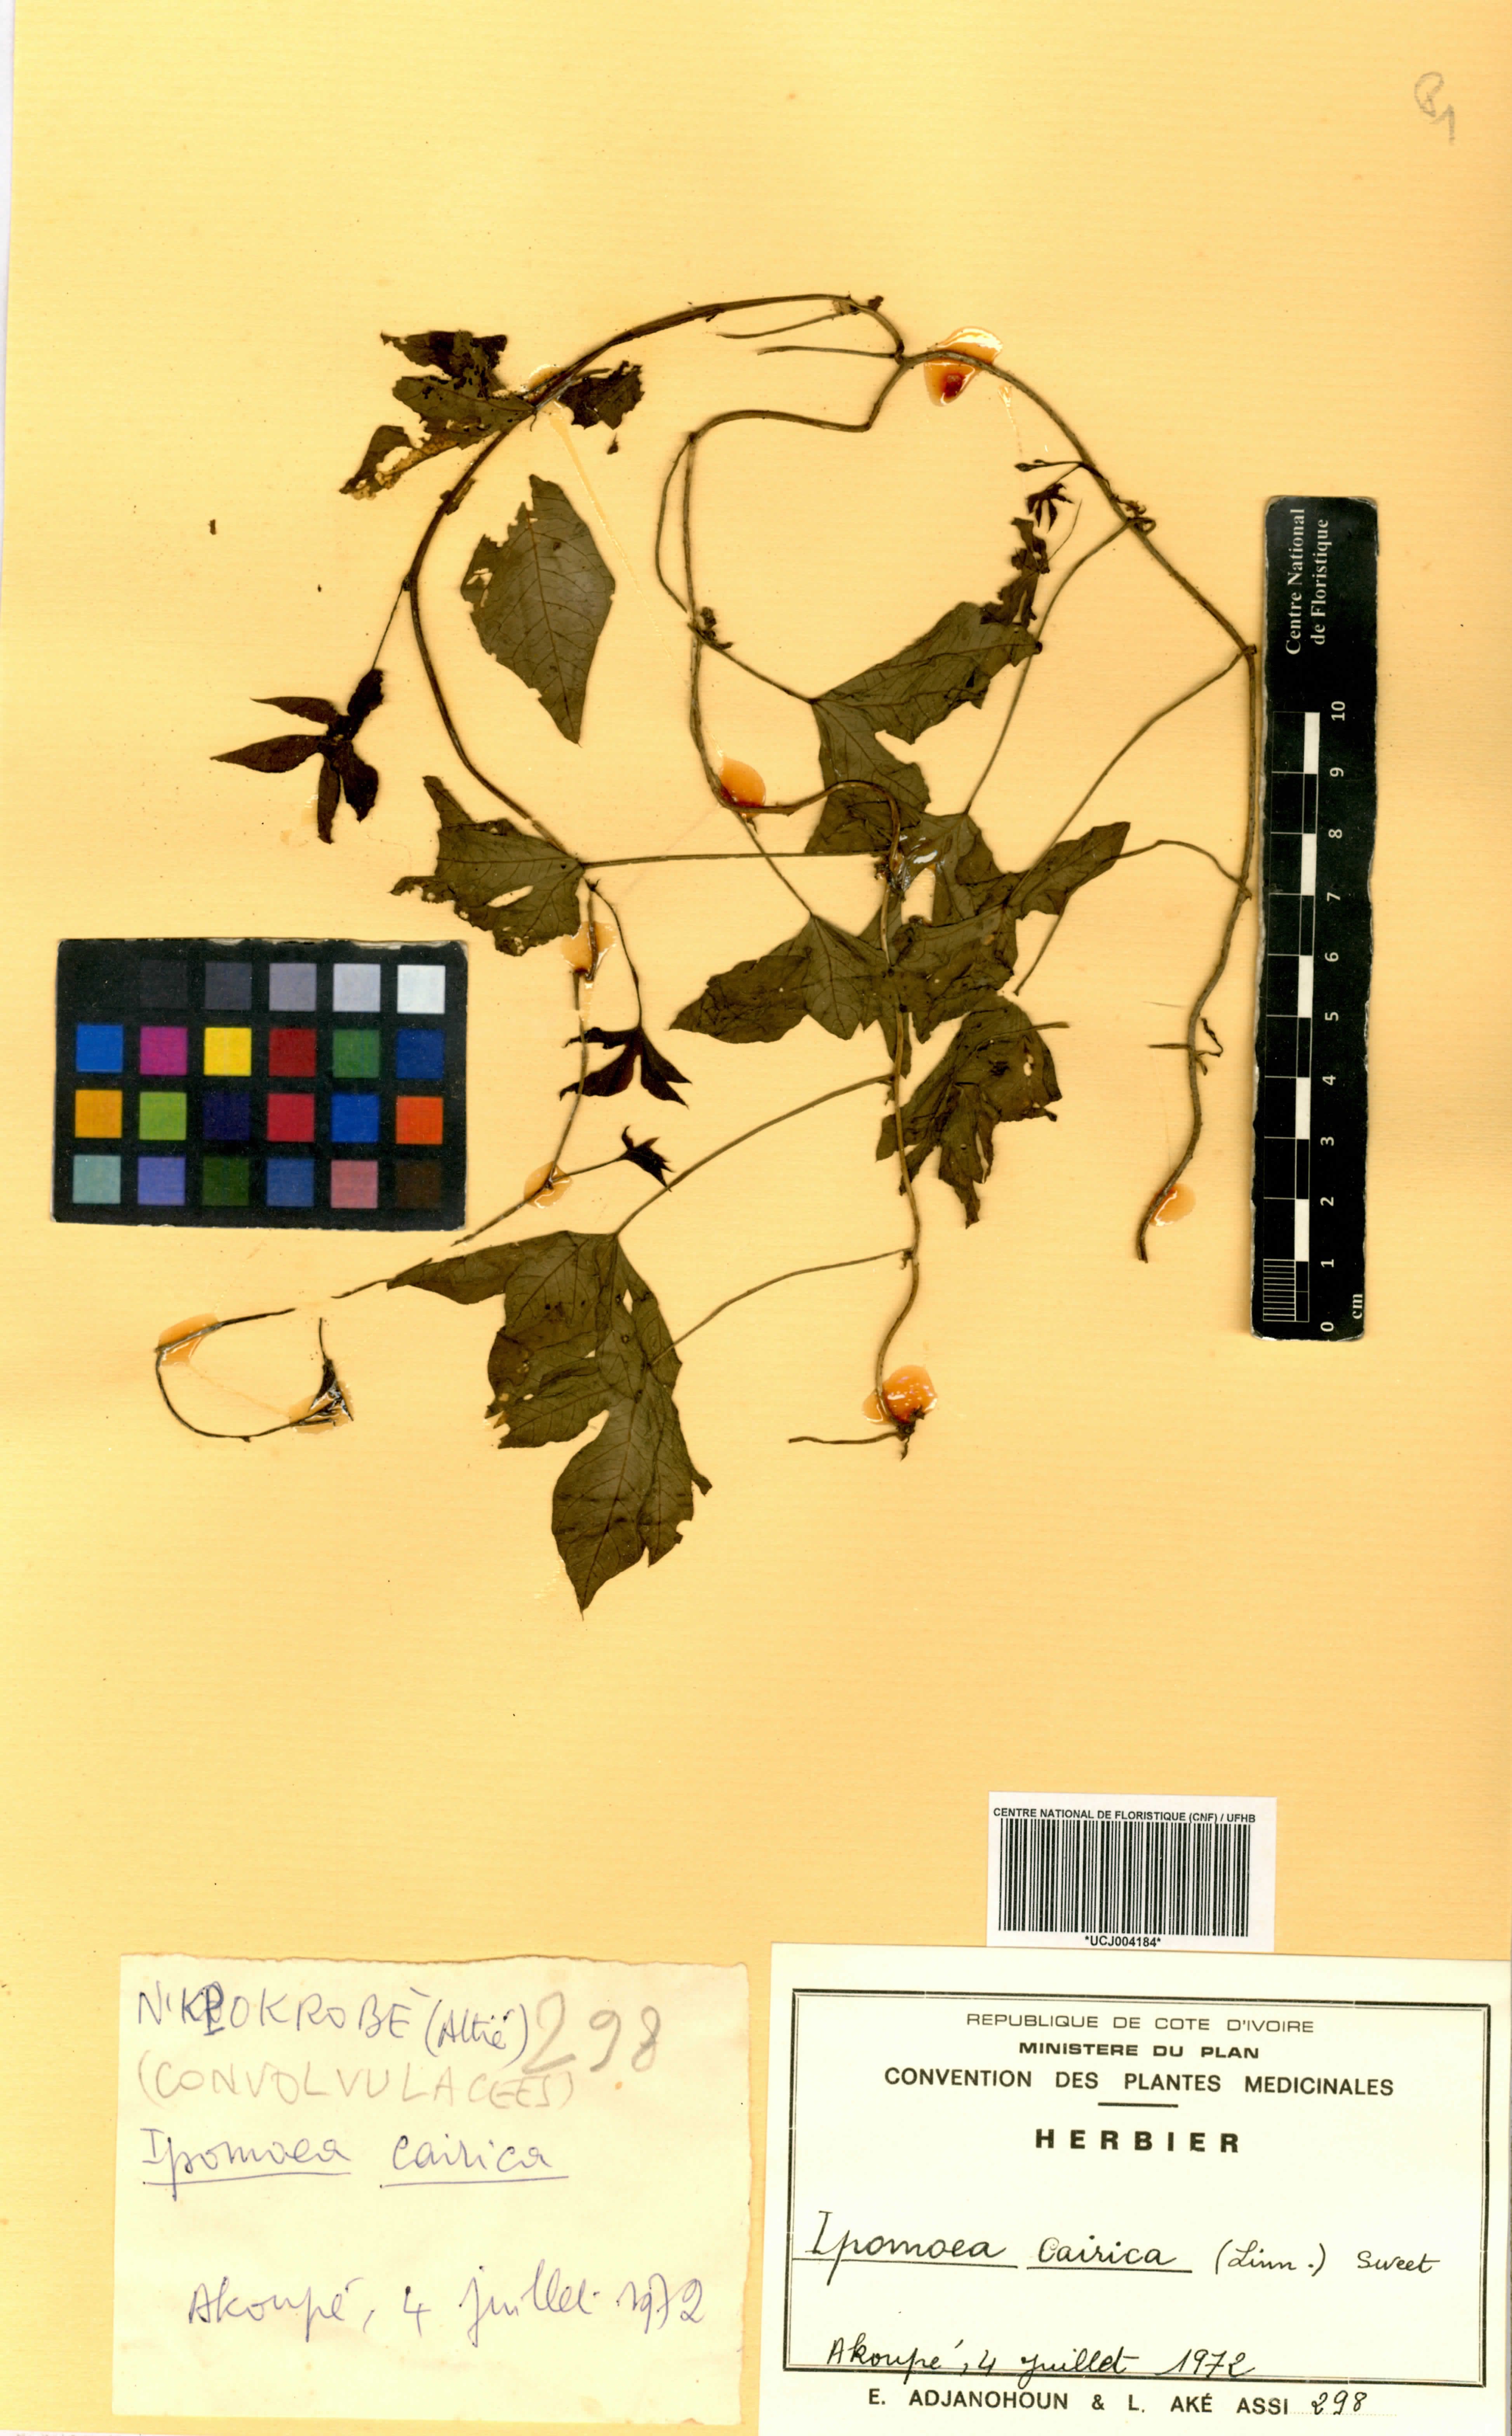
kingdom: Plantae
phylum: Tracheophyta
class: Magnoliopsida
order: Solanales
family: Convolvulaceae
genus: Ipomoea
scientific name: Ipomoea cairica
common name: Mile a minute vine
